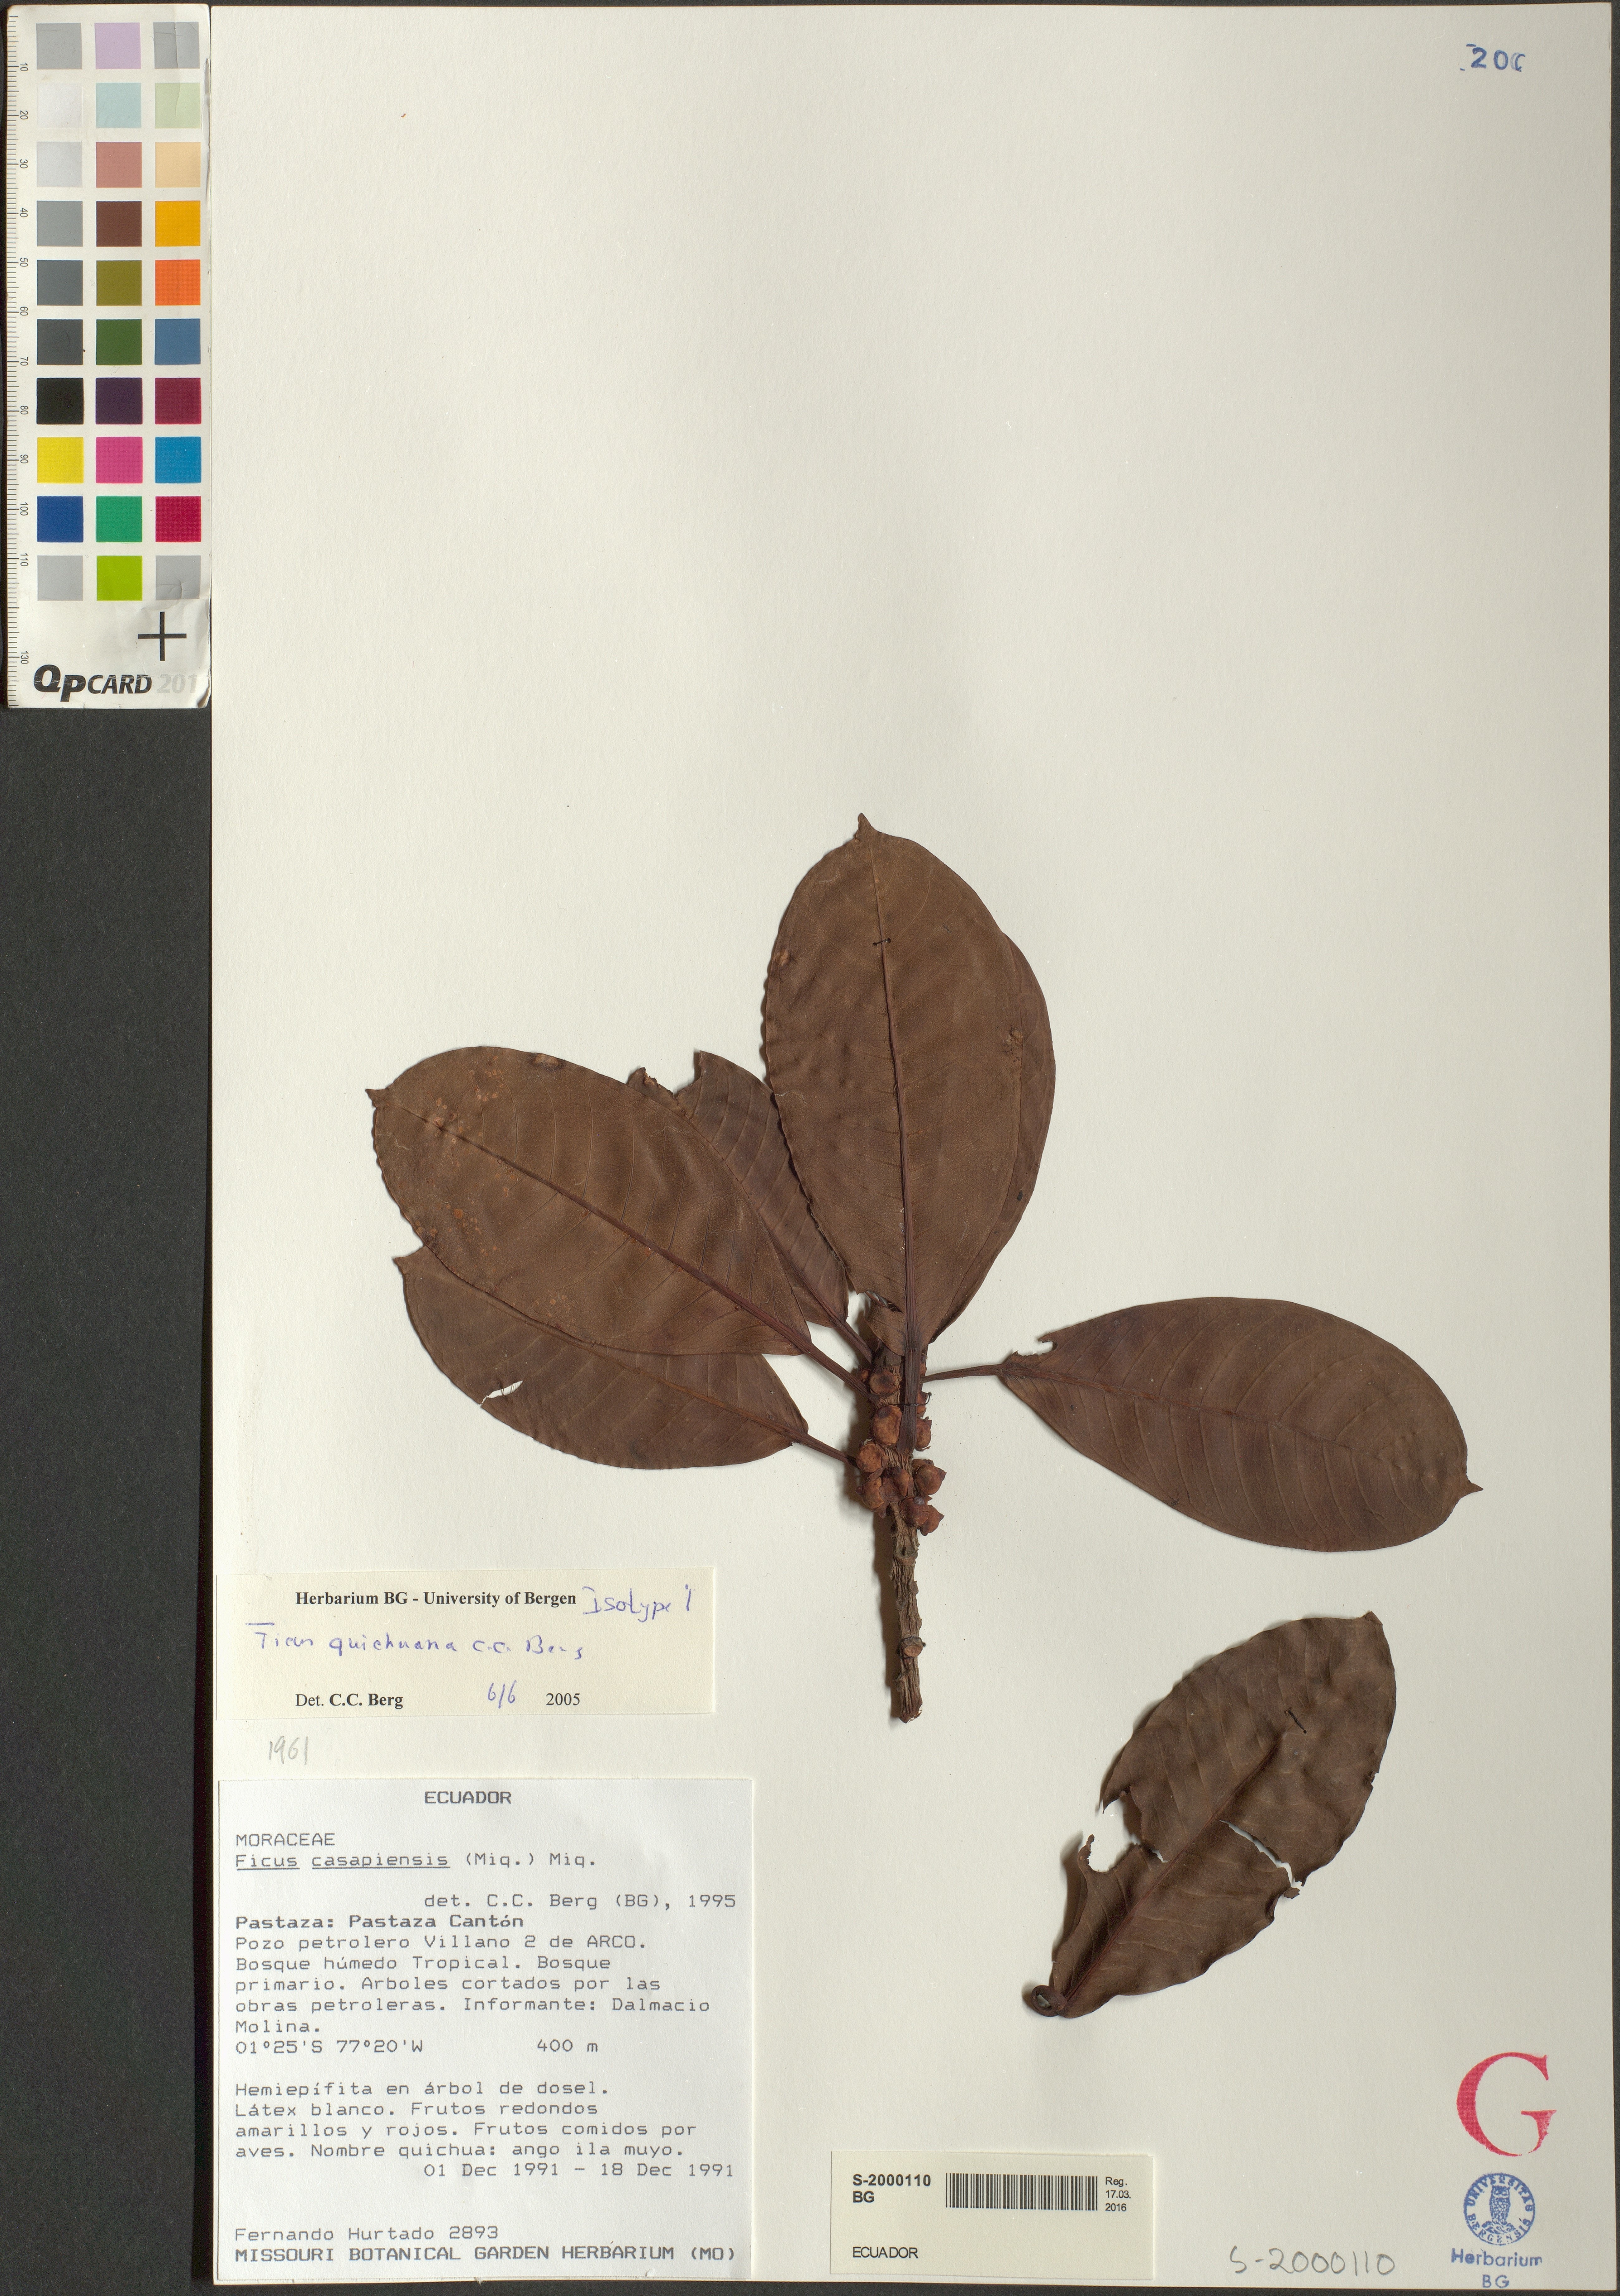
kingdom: Plantae
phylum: Tracheophyta
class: Magnoliopsida
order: Rosales
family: Moraceae
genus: Ficus
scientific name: Ficus quichuana
